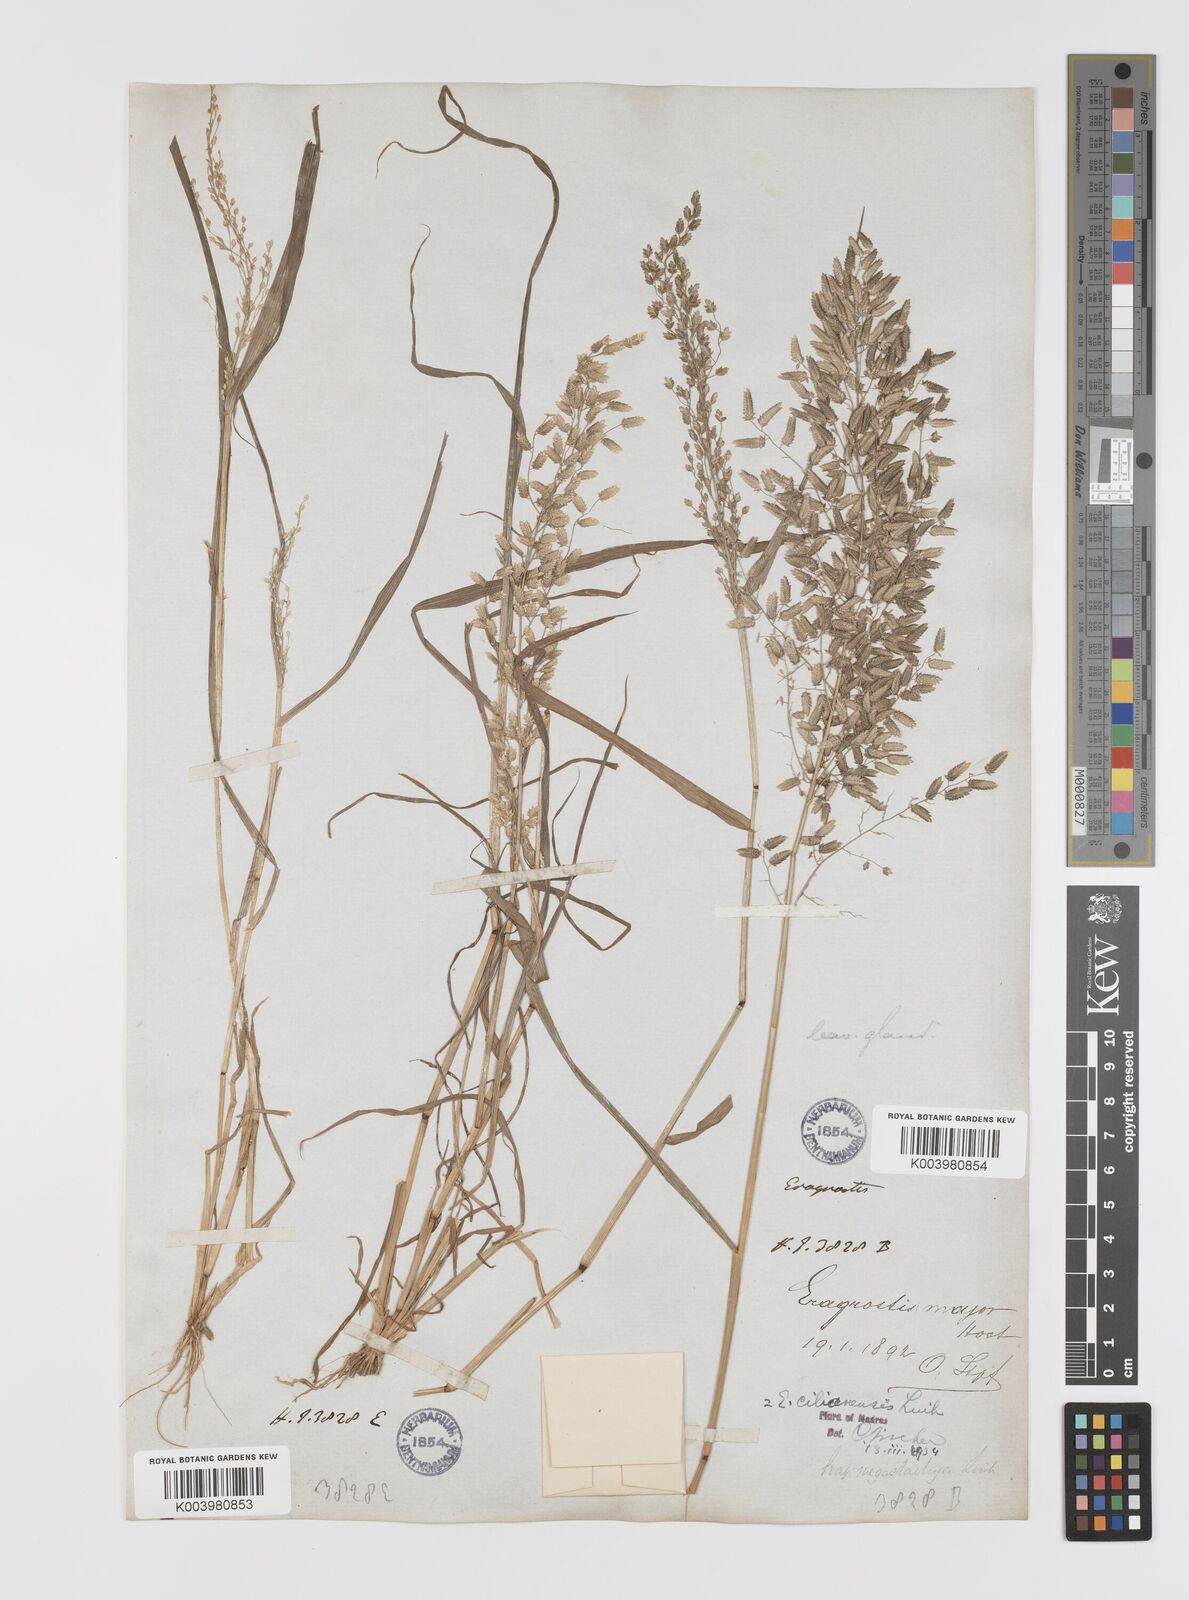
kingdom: Plantae
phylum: Tracheophyta
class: Liliopsida
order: Poales
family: Poaceae
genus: Eragrostis
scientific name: Eragrostis cilianensis
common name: Stinkgrass
